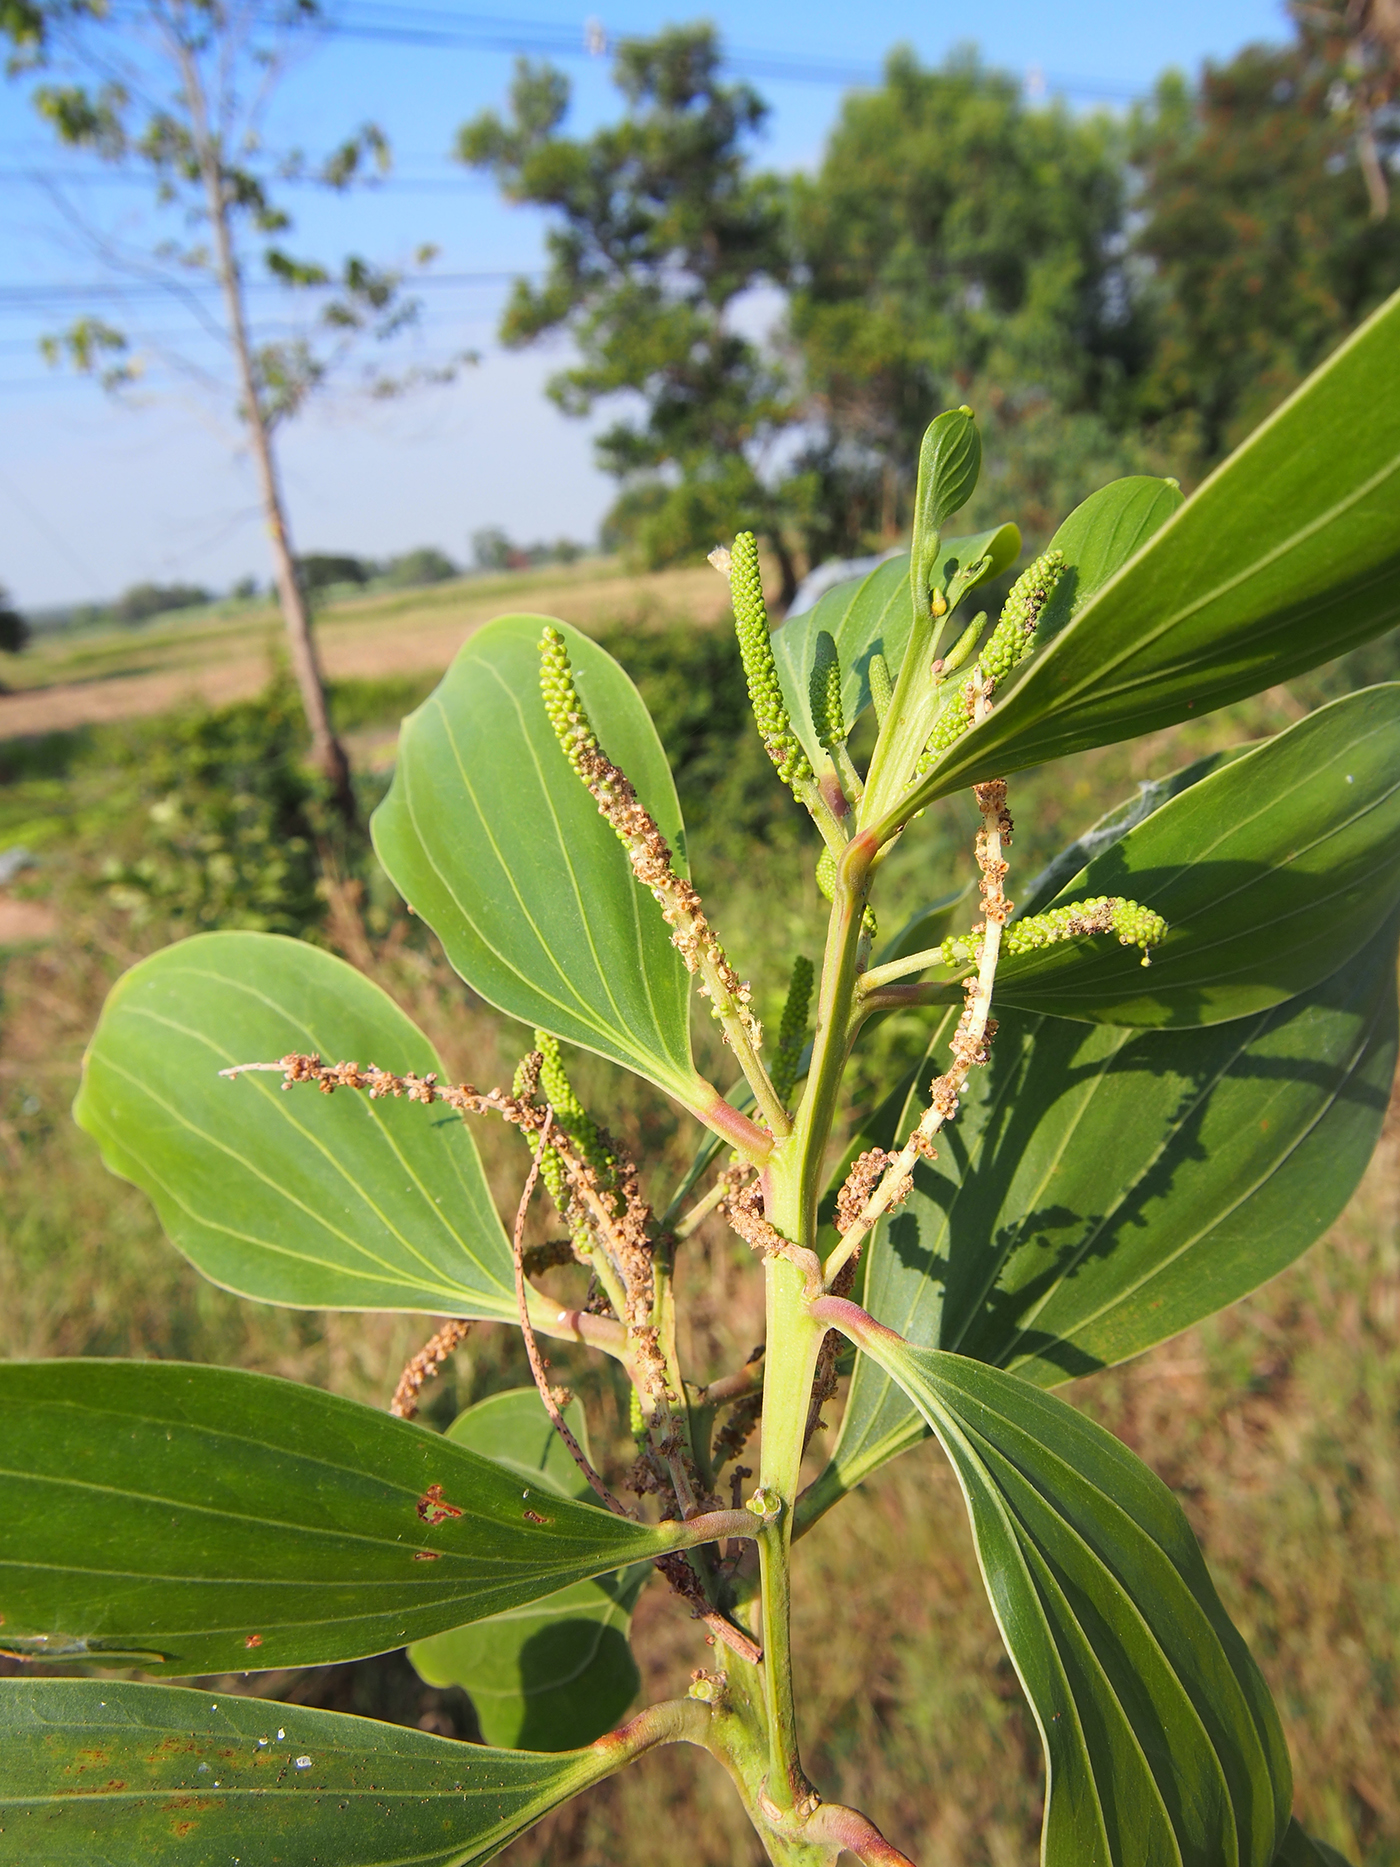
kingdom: Plantae
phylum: Tracheophyta
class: Magnoliopsida
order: Fabales
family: Fabaceae
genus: Acacia
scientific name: Acacia mangium
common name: Black wattle
